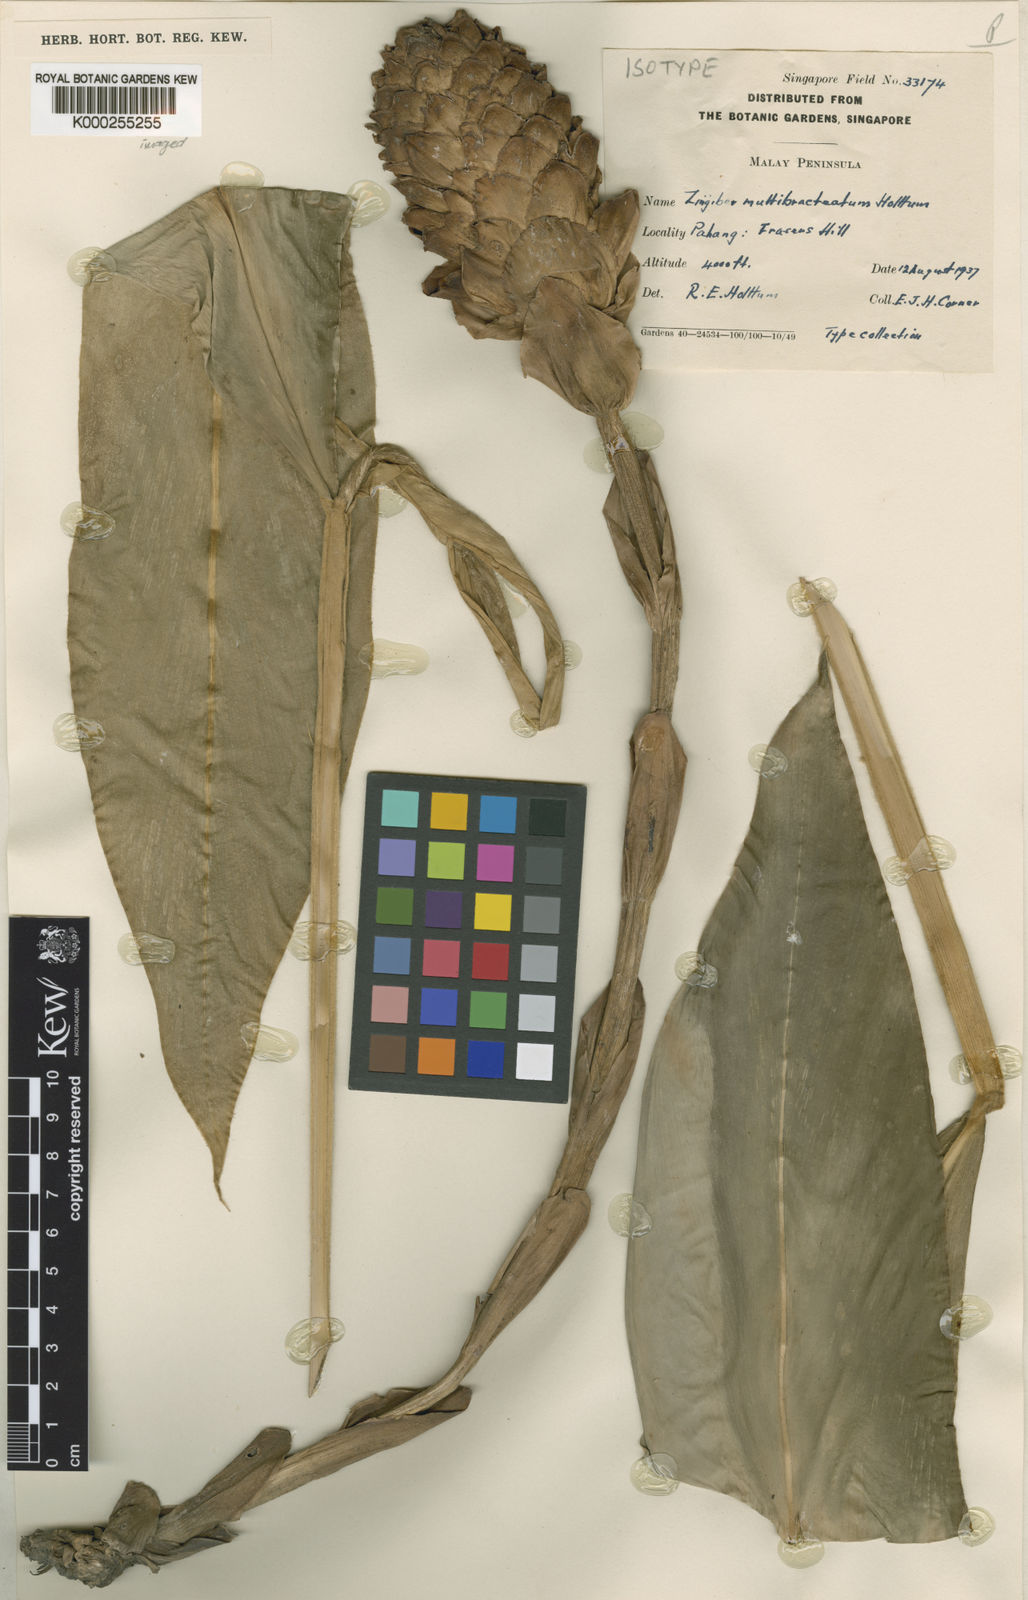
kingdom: Plantae
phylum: Tracheophyta
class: Liliopsida
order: Zingiberales
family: Zingiberaceae
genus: Zingiber
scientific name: Zingiber multibracteatum
